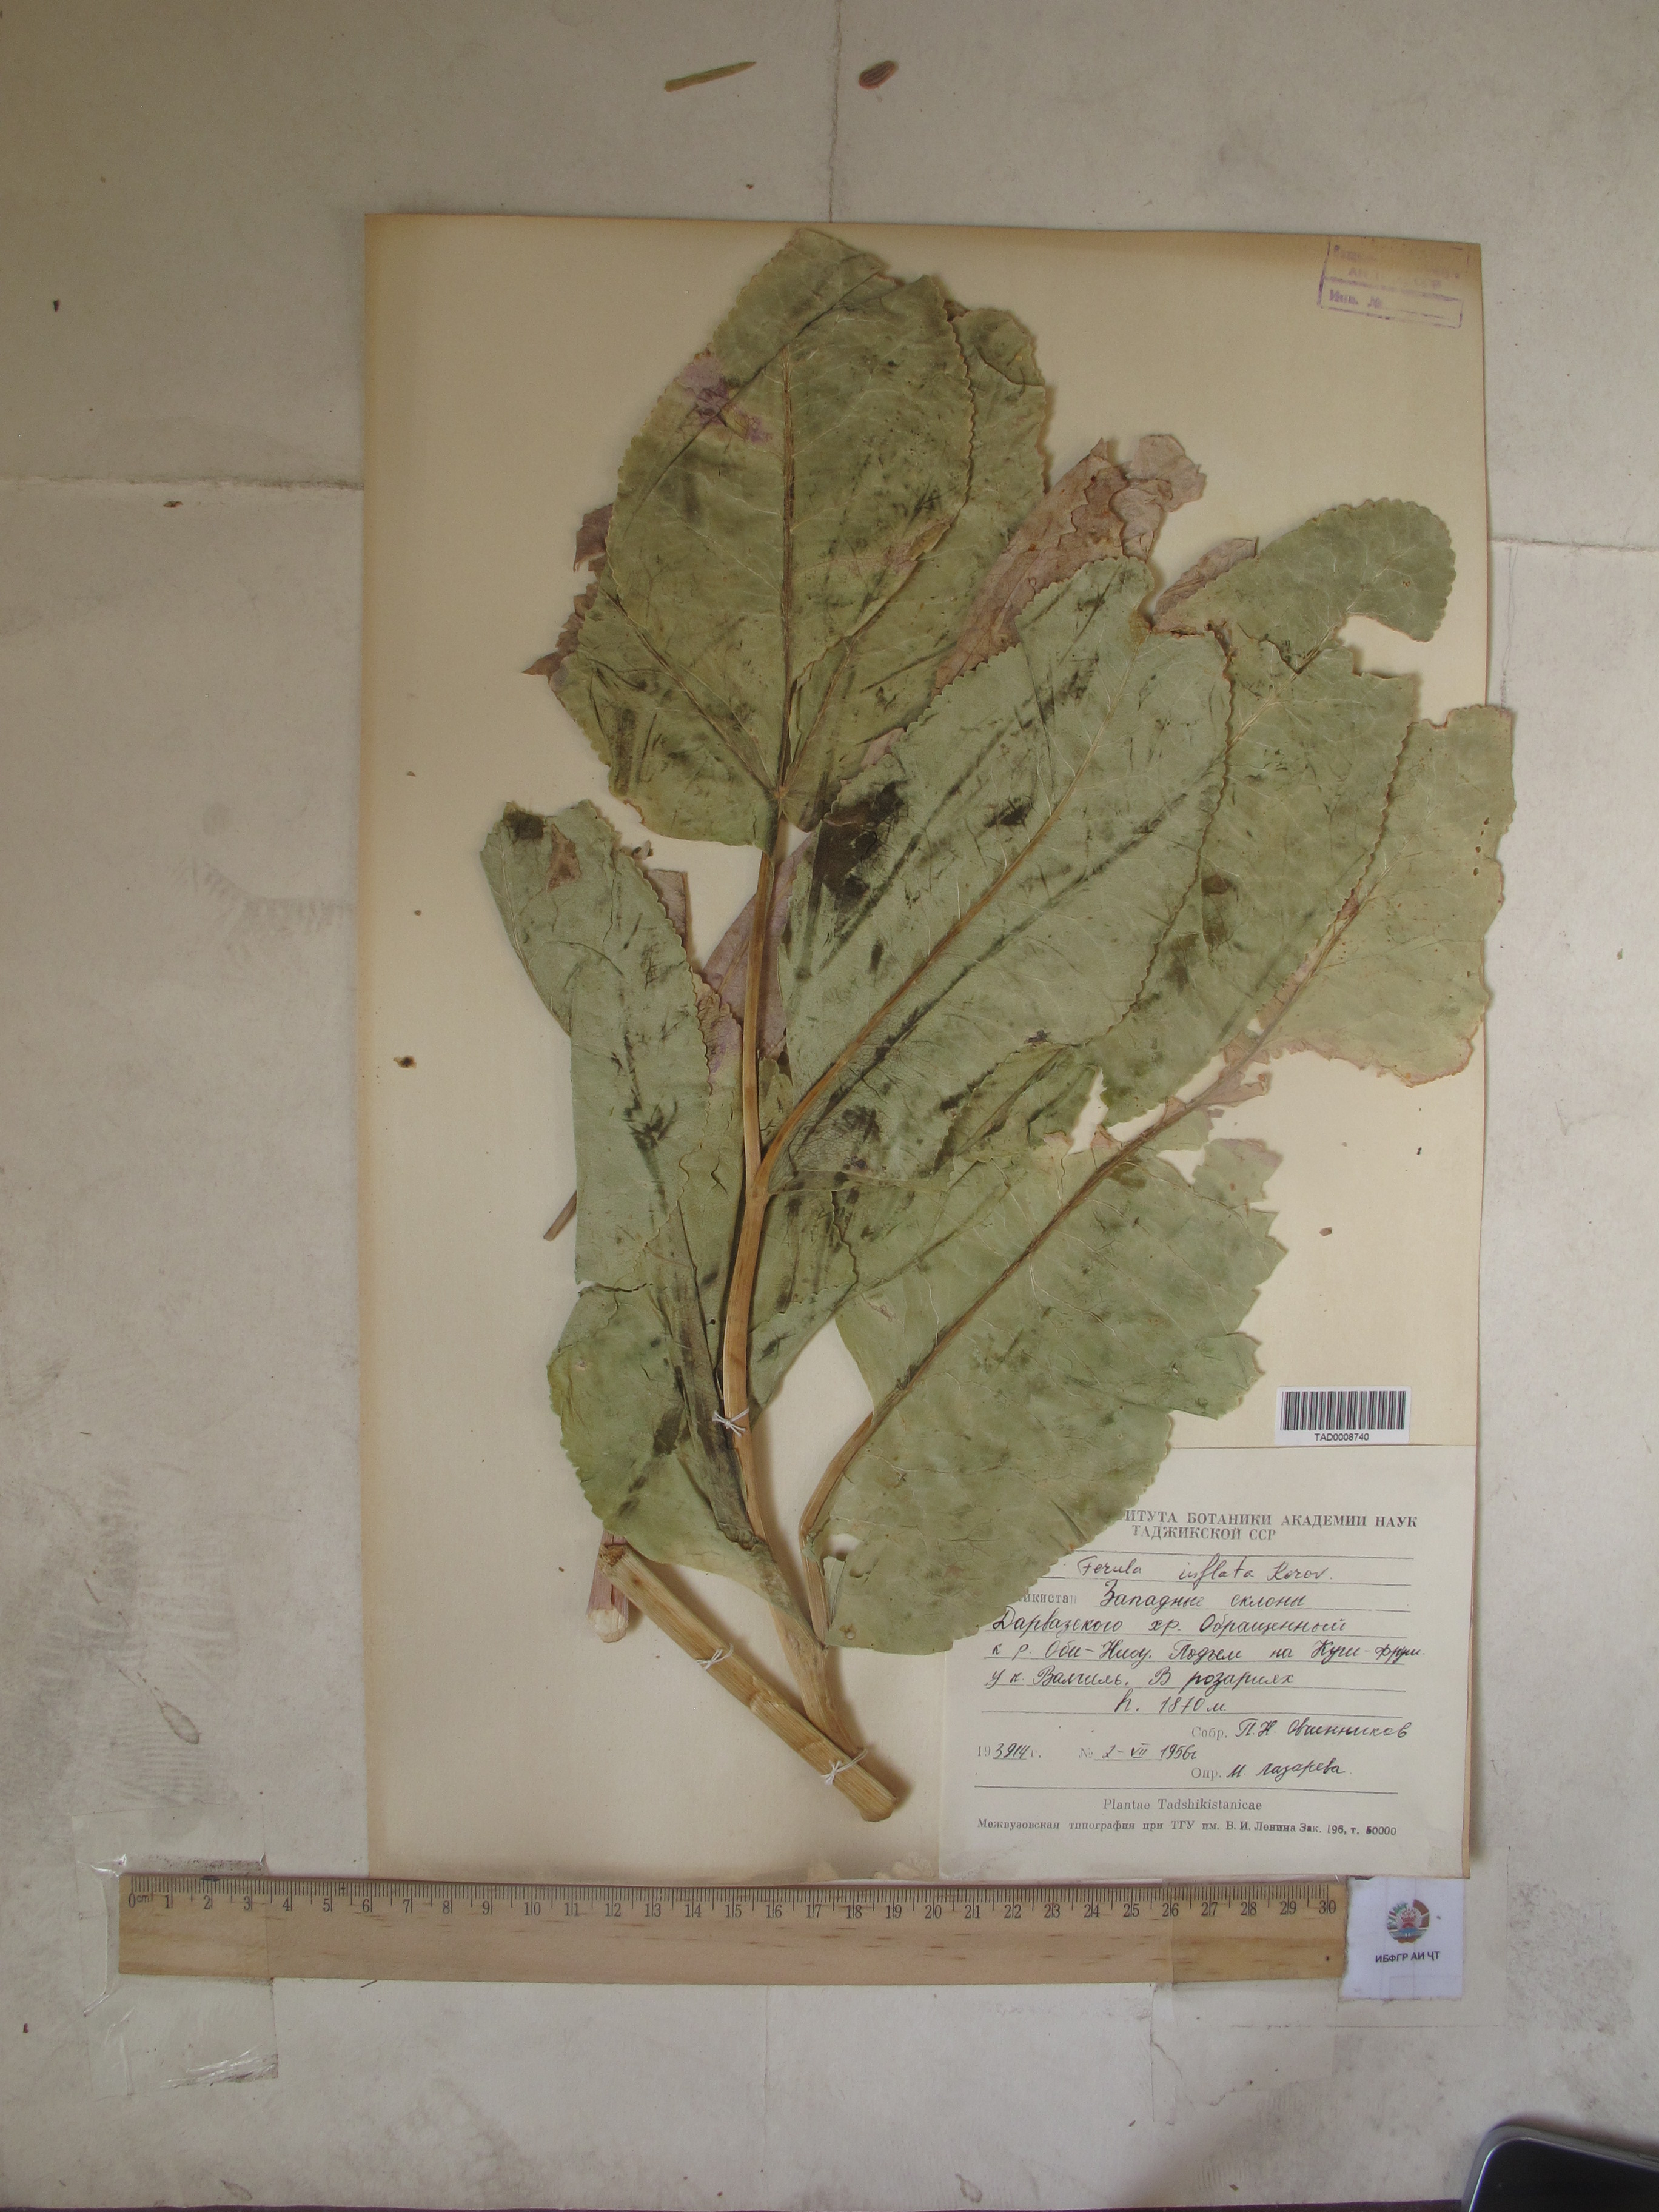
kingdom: Plantae
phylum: Tracheophyta
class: Magnoliopsida
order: Apiales
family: Apiaceae
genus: Ferula
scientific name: Ferula gigantea
